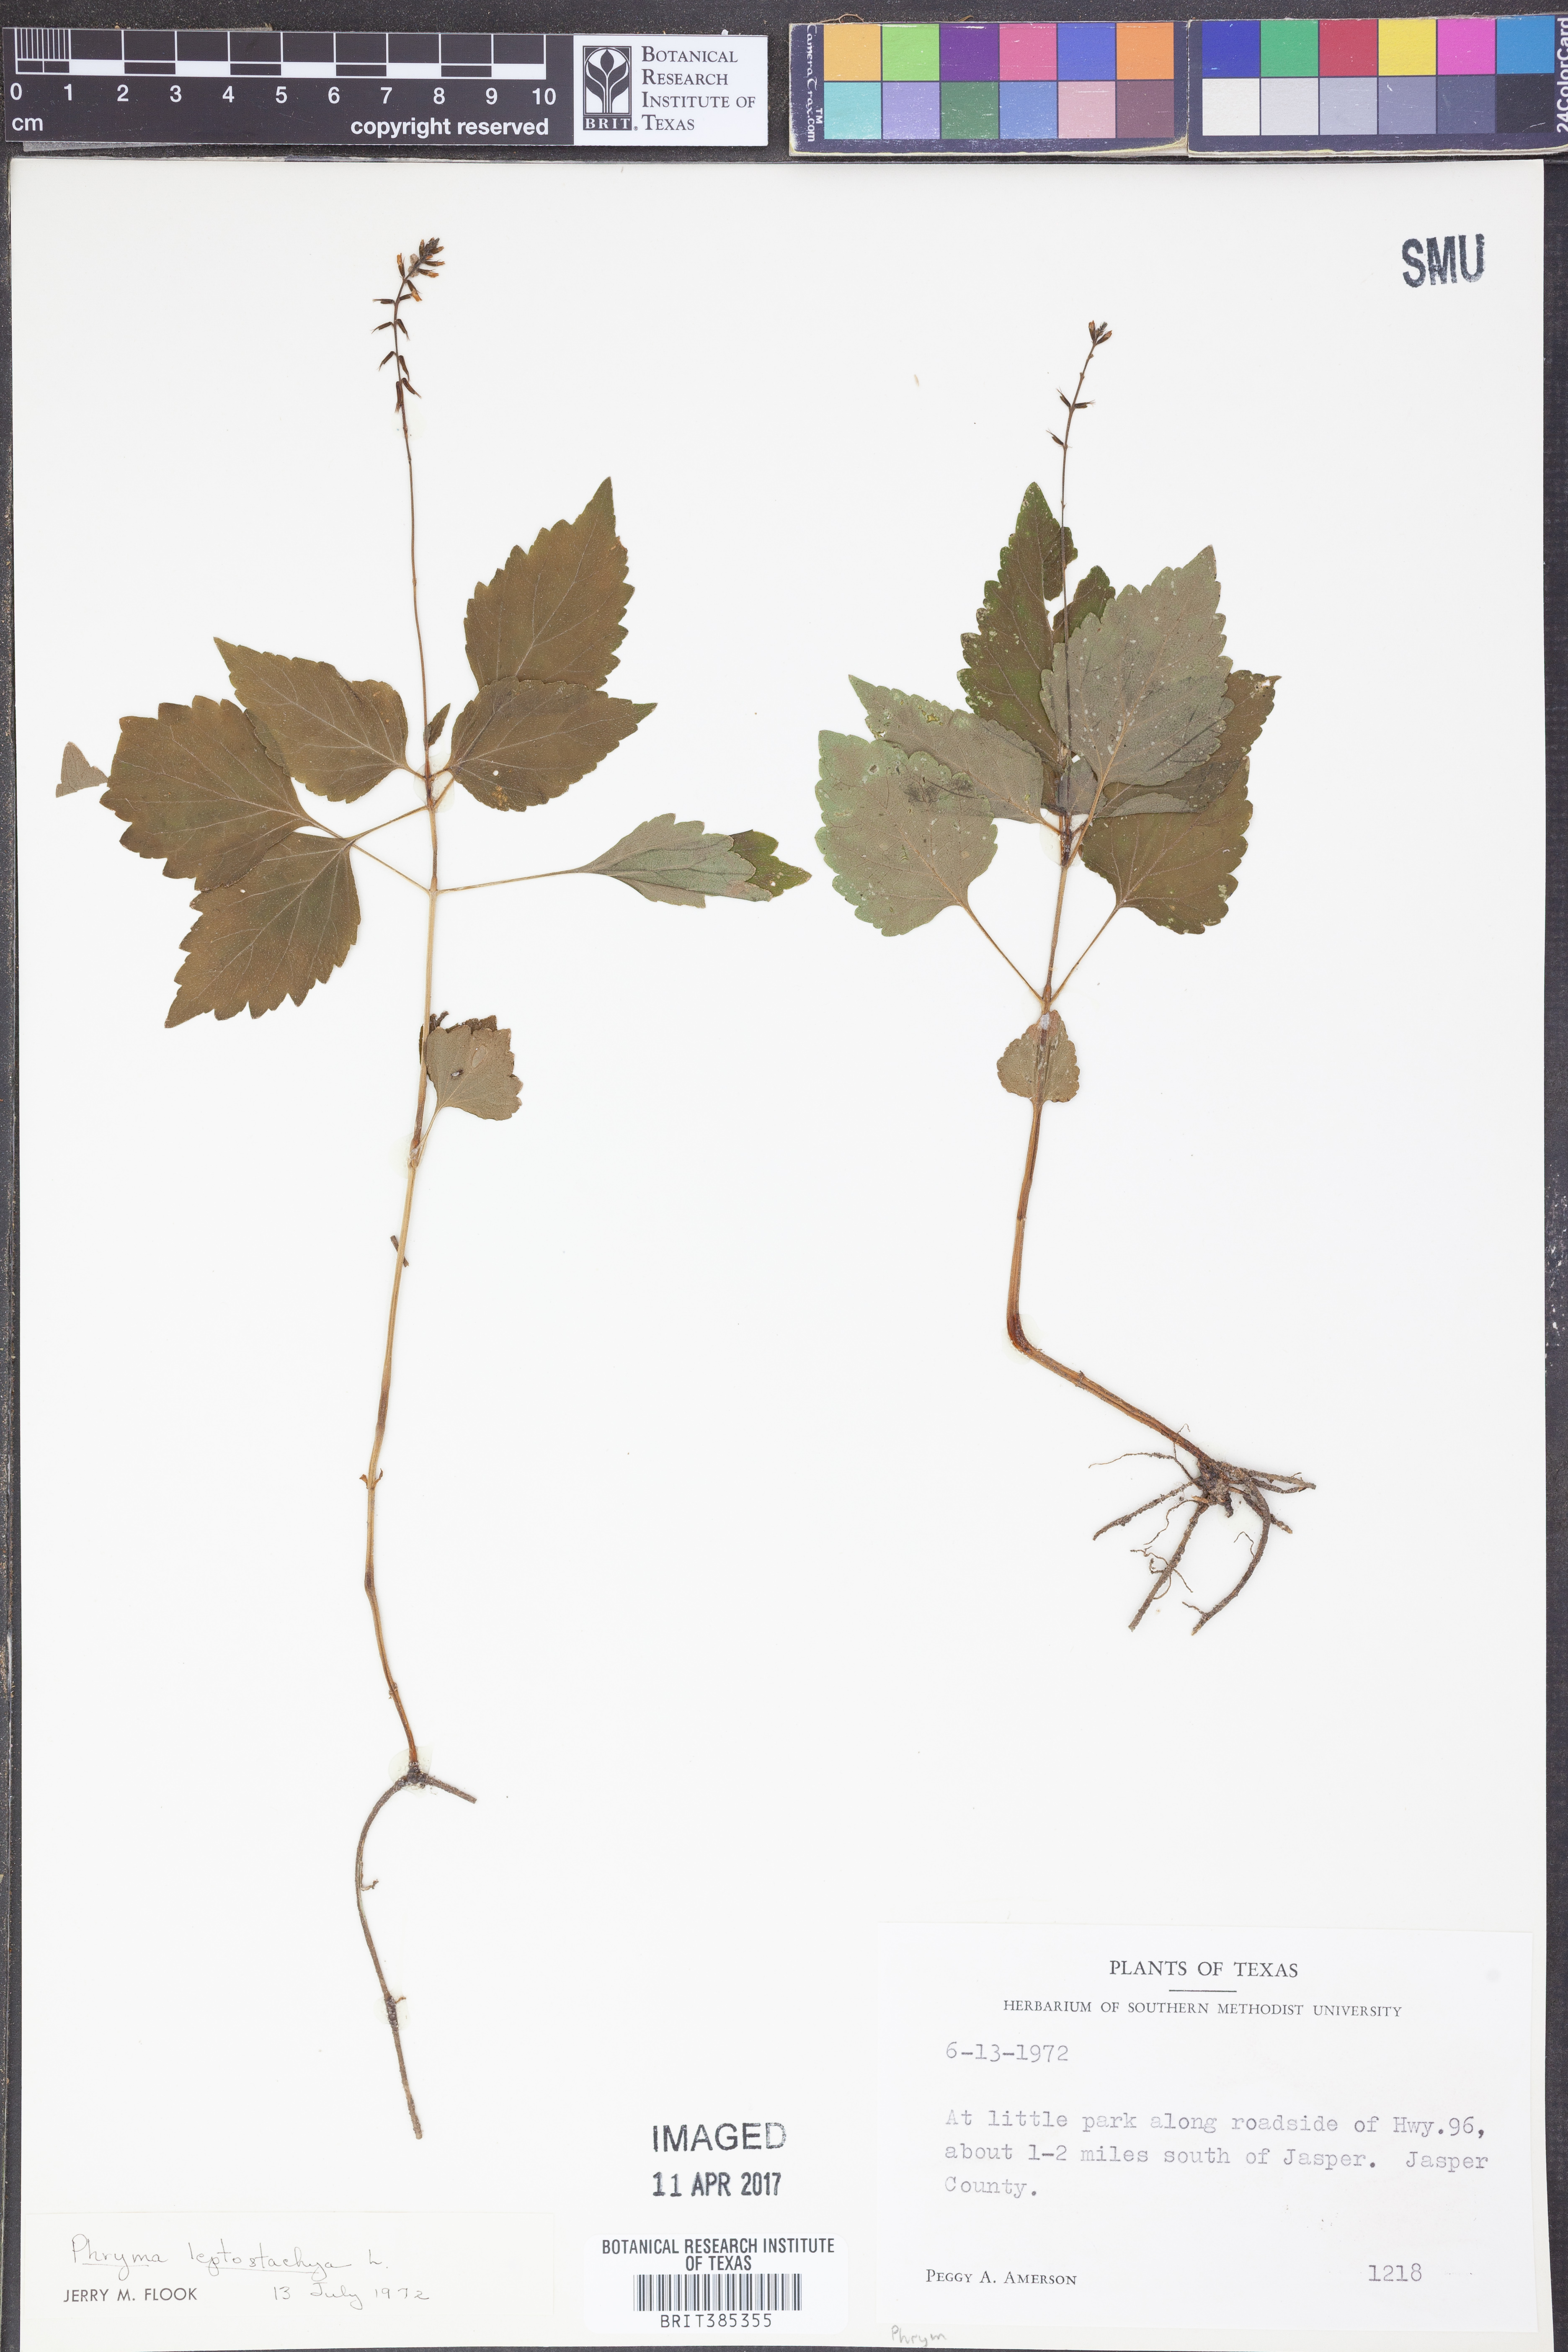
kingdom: Plantae
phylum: Tracheophyta
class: Magnoliopsida
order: Lamiales
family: Phrymaceae
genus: Phryma
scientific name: Phryma leptostachya
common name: American lopseed
